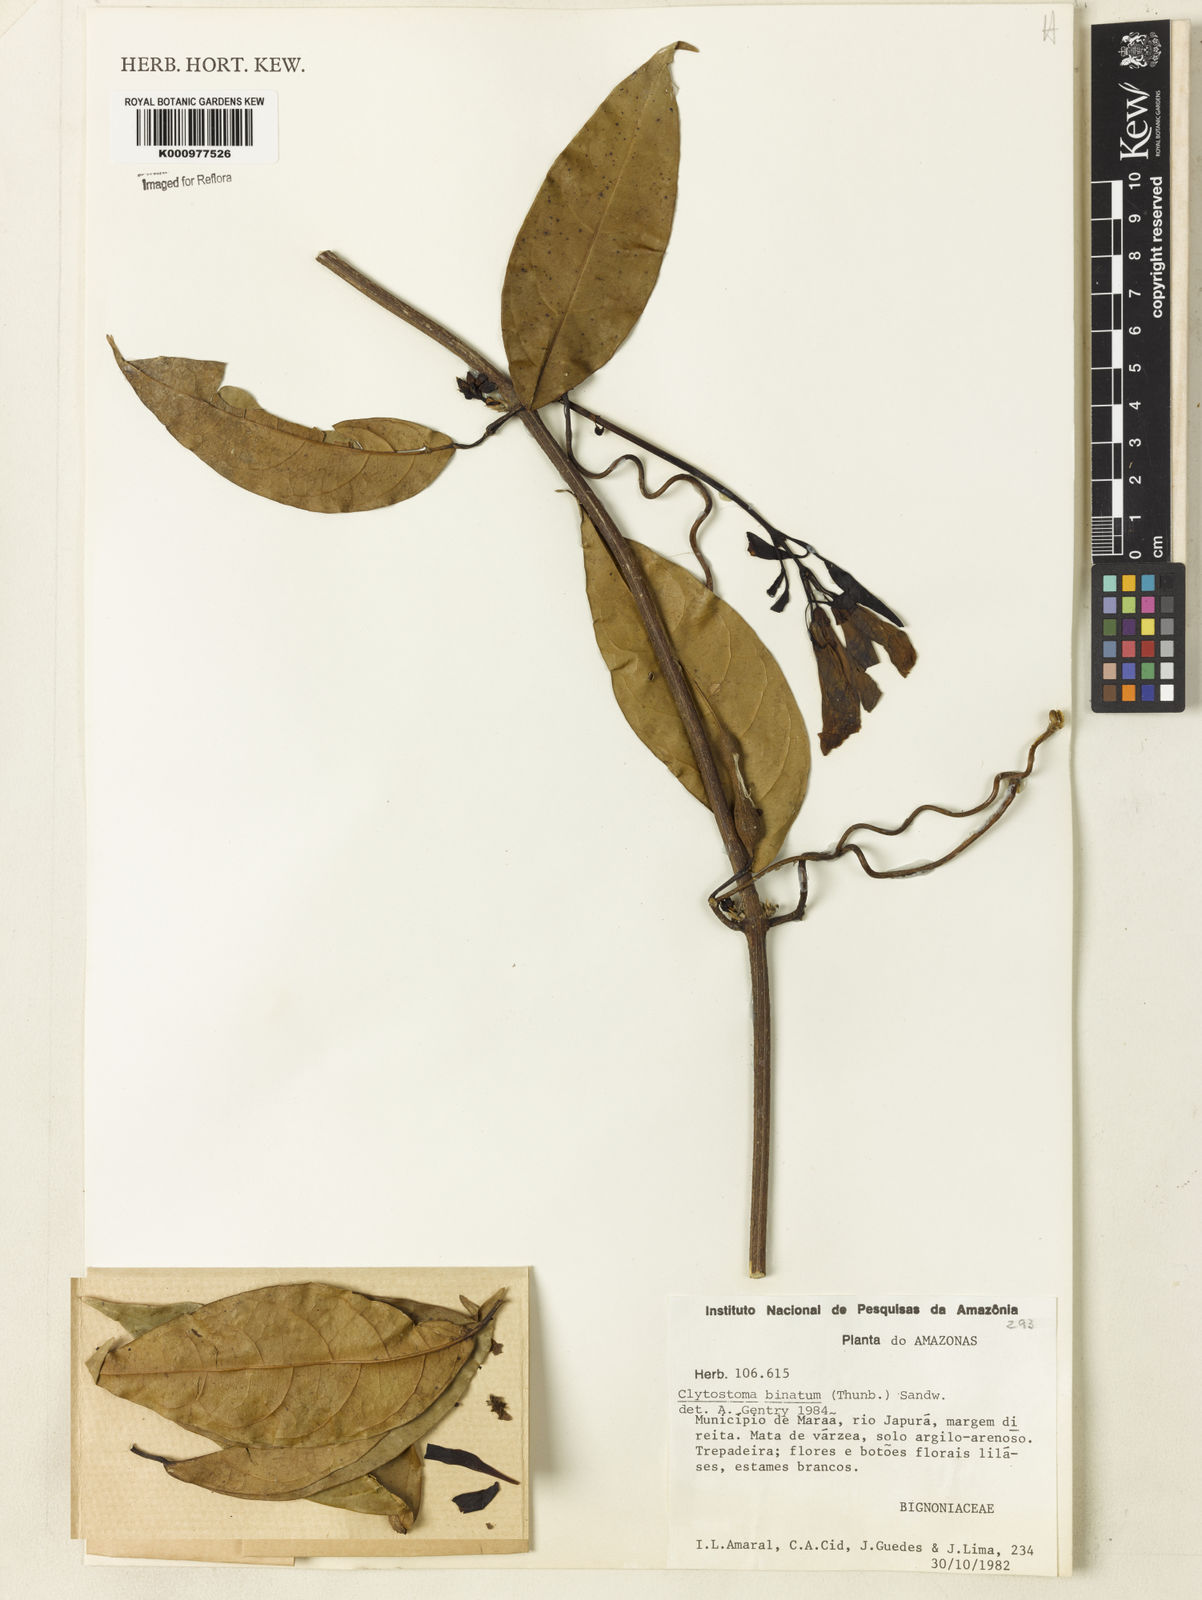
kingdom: Plantae
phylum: Tracheophyta
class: Magnoliopsida
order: Lamiales
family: Bignoniaceae
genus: Bignonia
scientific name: Bignonia binata
